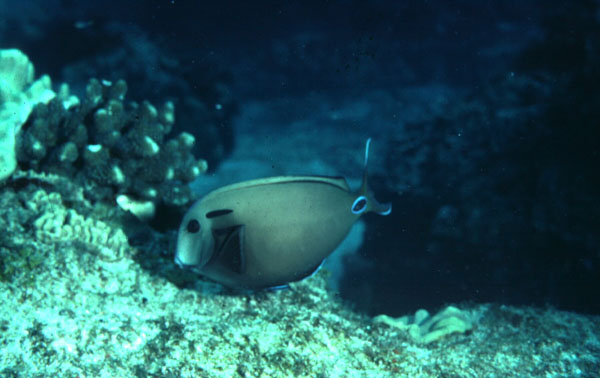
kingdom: Animalia
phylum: Chordata
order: Perciformes
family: Acanthuridae
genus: Acanthurus
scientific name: Acanthurus tennentii
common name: Doubleband surgeonfish
